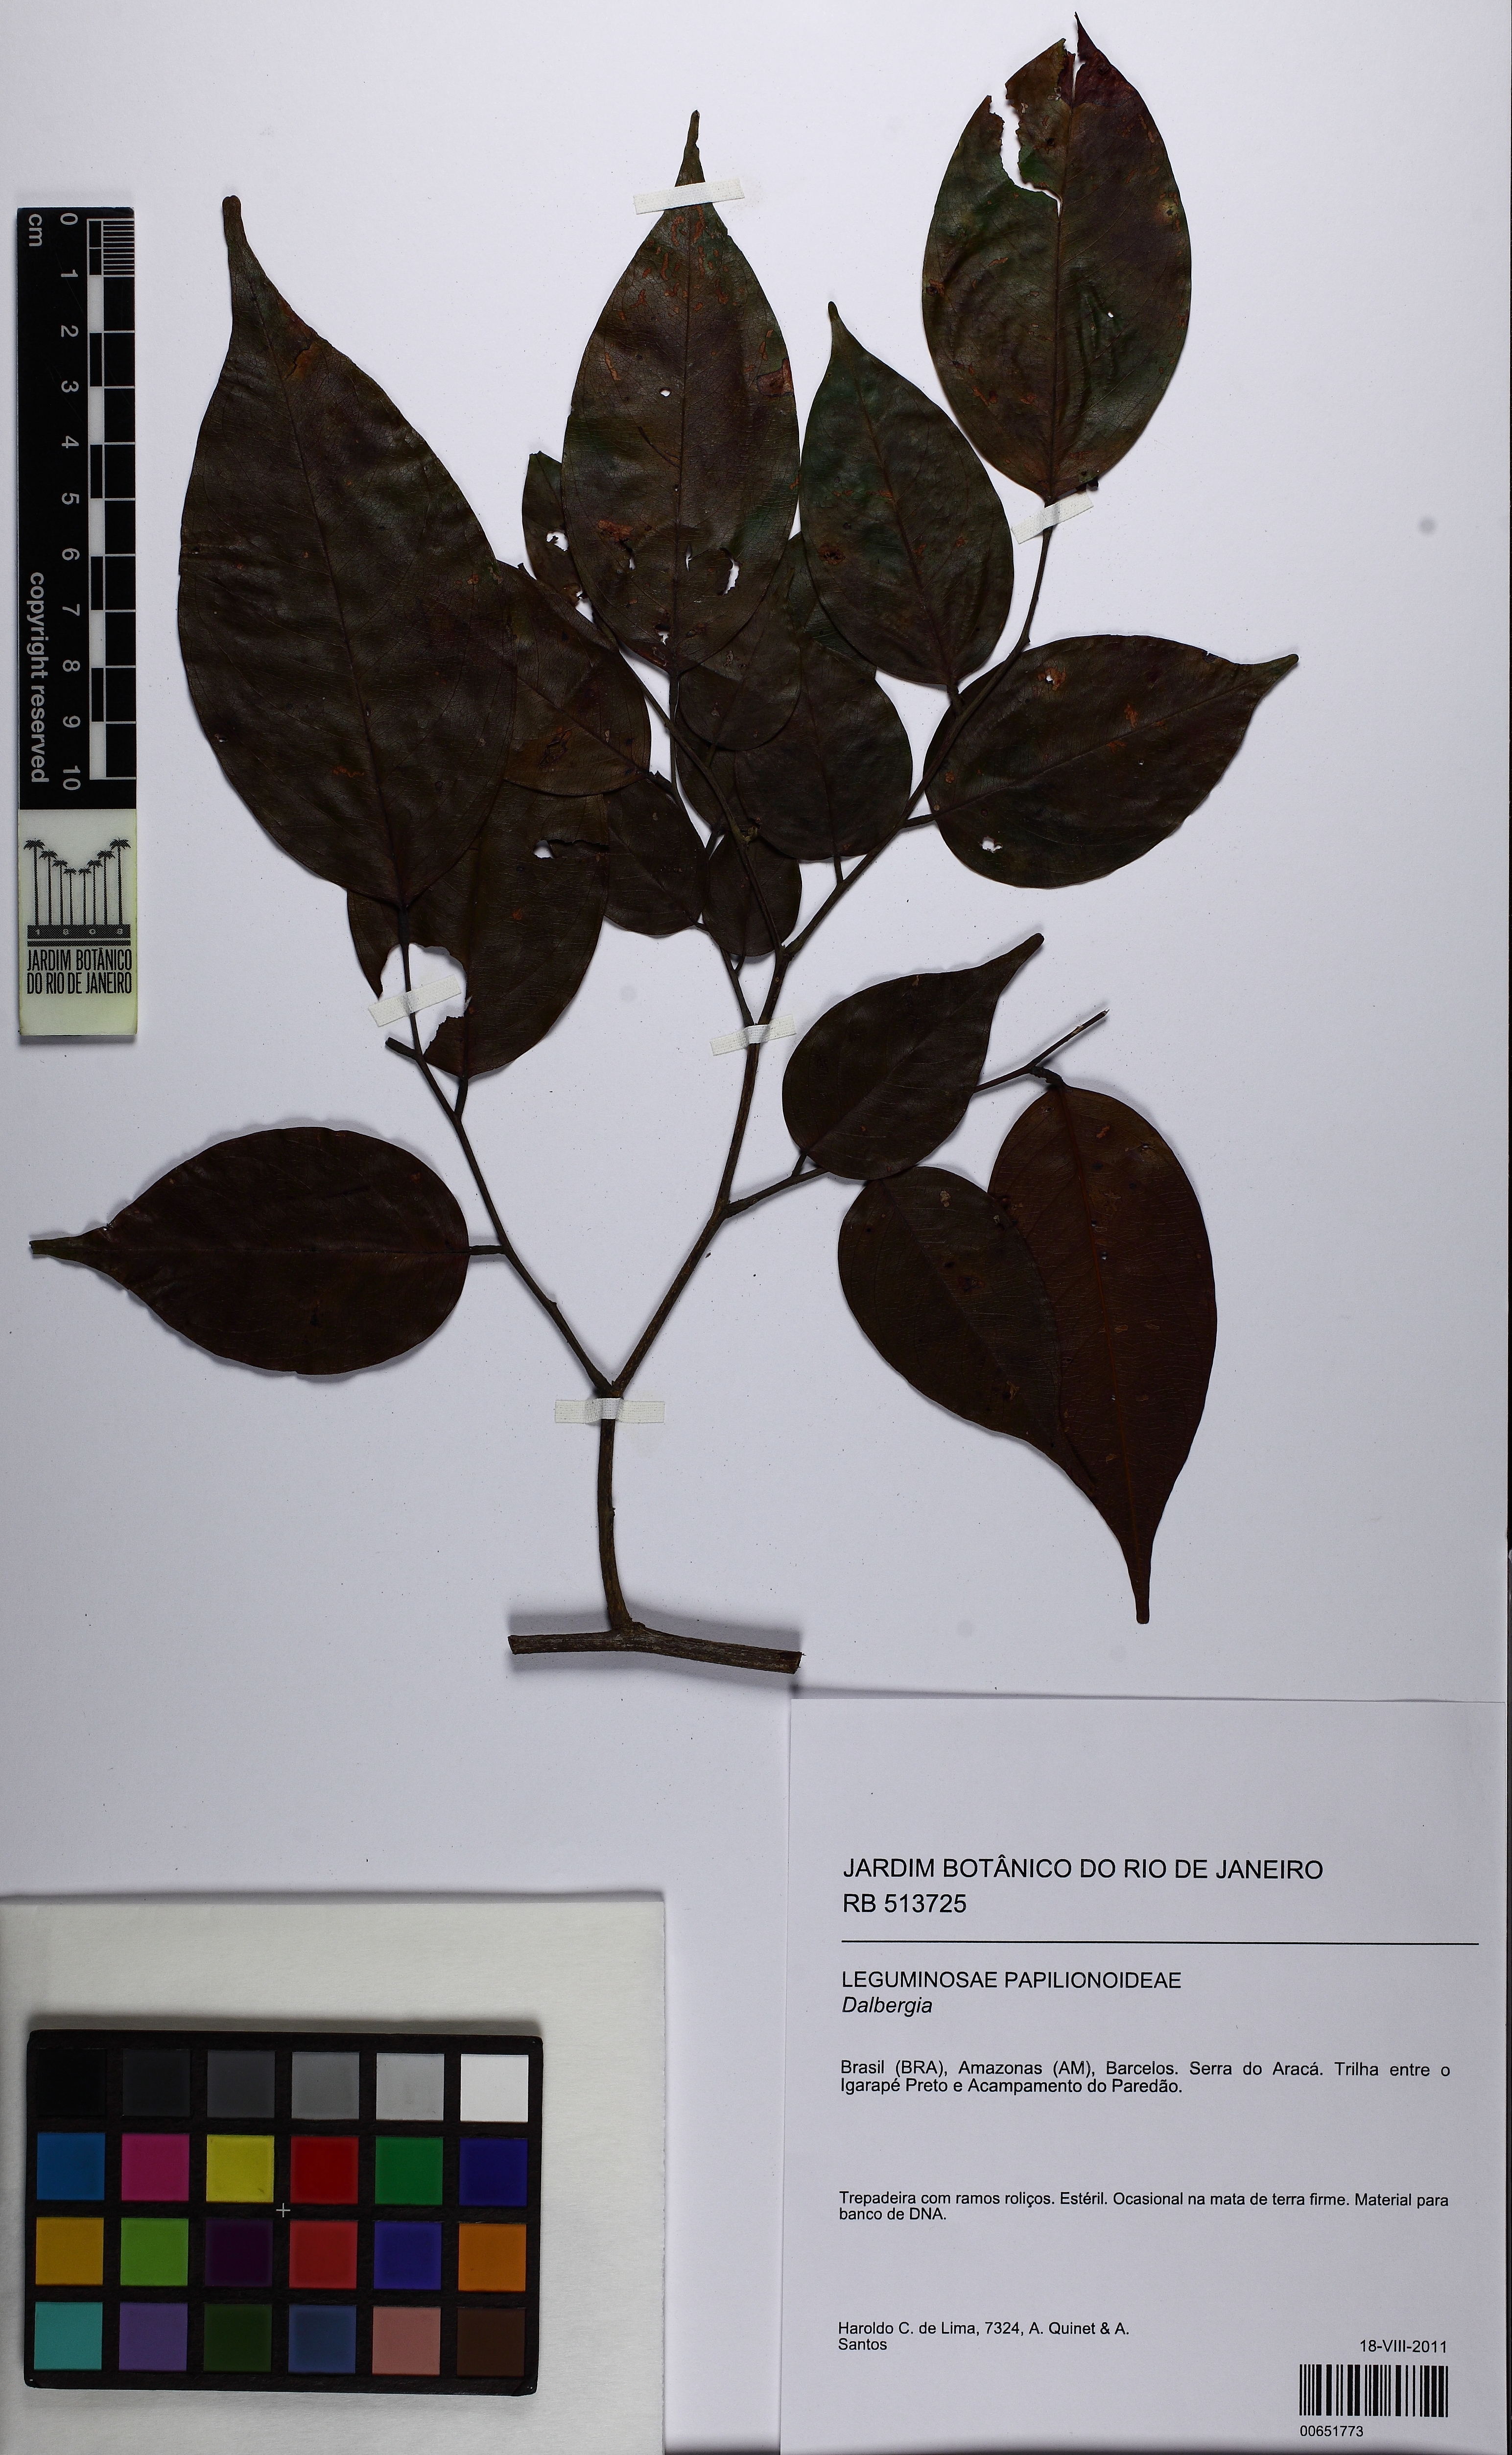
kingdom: Plantae
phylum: Tracheophyta
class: Magnoliopsida
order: Fabales
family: Fabaceae
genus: Dalbergia
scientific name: Dalbergia
